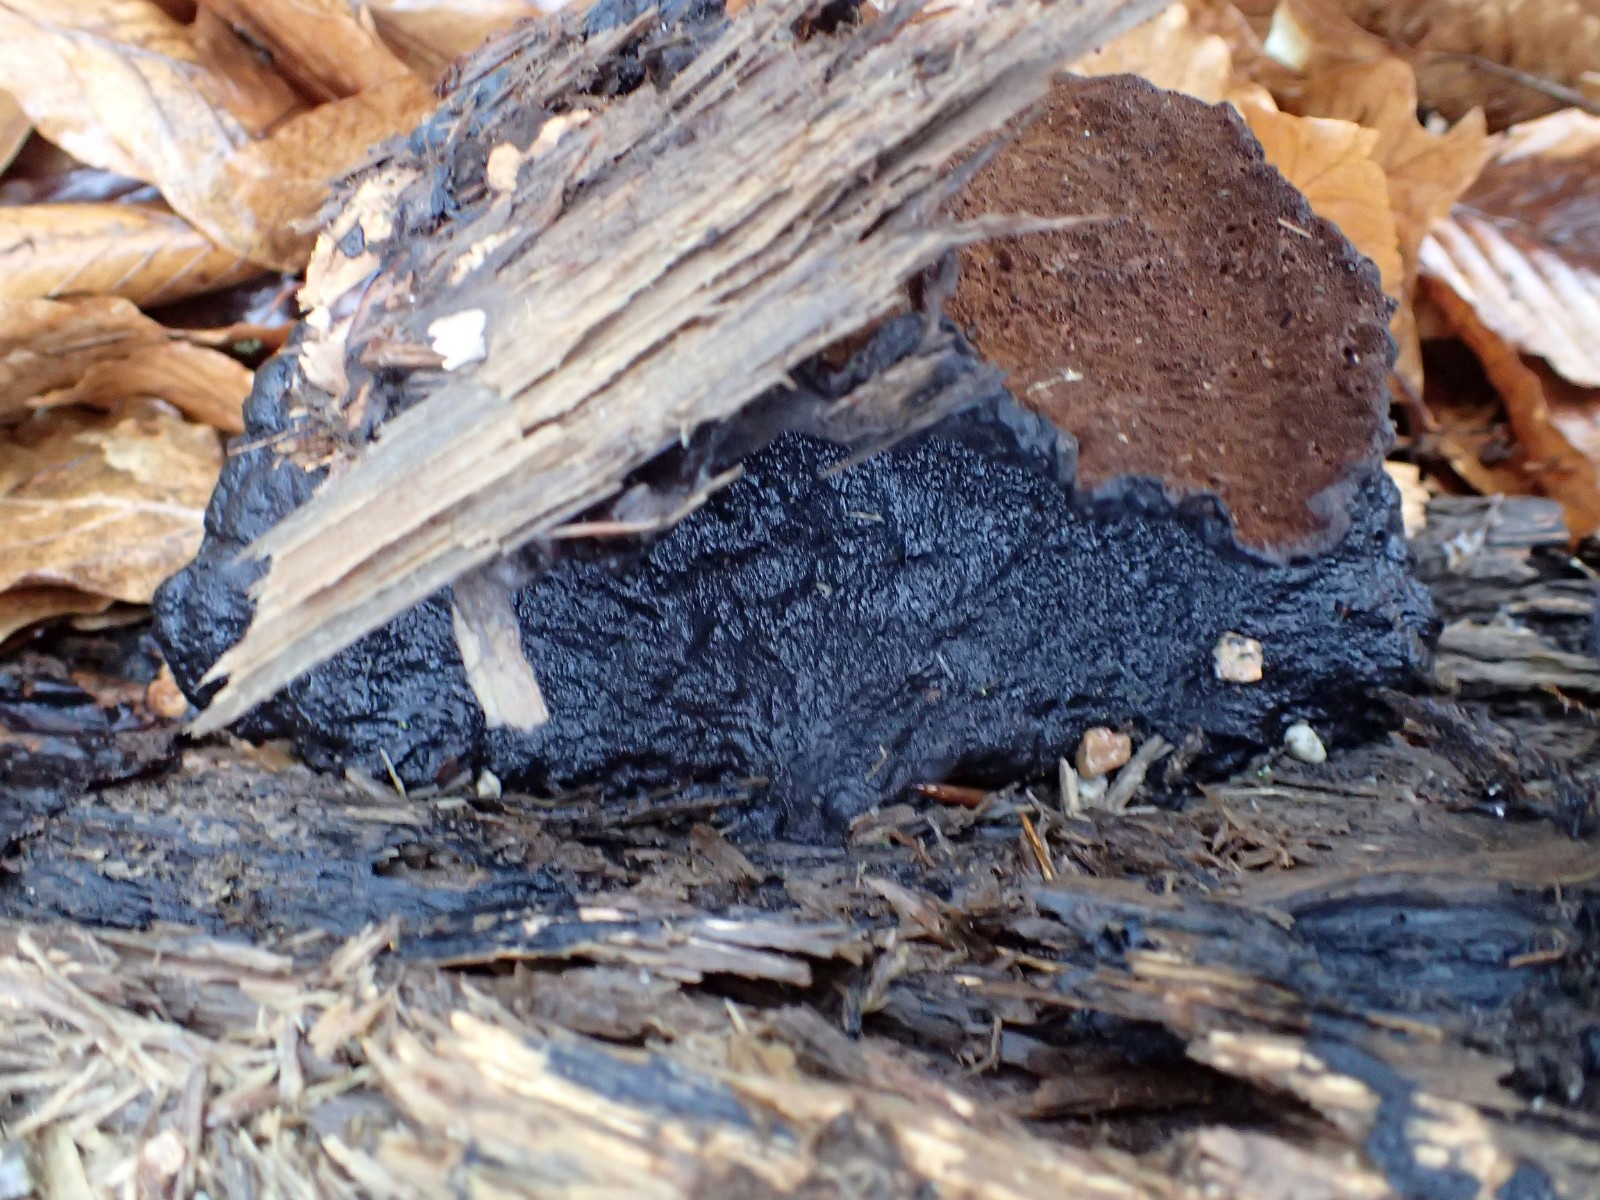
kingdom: Fungi
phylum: Basidiomycota
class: Agaricomycetes
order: Polyporales
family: Ischnodermataceae
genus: Ischnoderma
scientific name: Ischnoderma benzoinum
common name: gran-tjæreporesvamp
